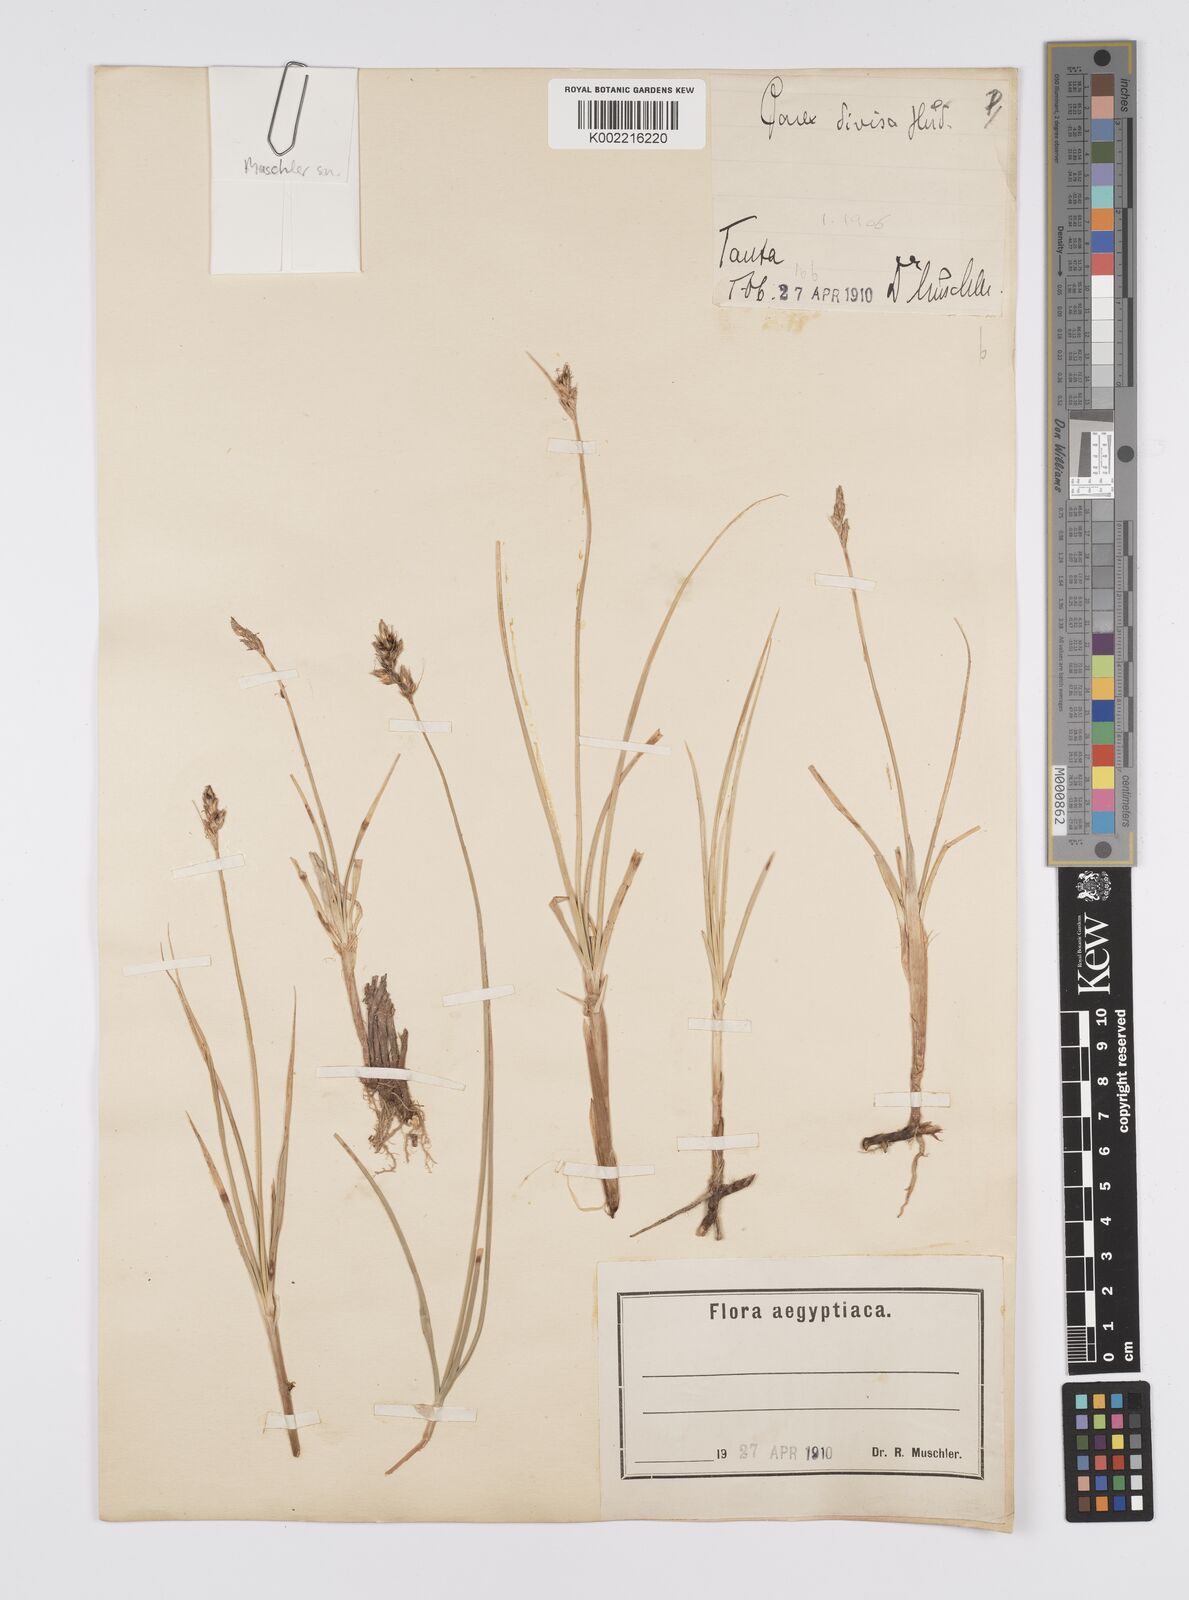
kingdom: Plantae
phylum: Tracheophyta
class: Liliopsida
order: Poales
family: Cyperaceae
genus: Carex
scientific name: Carex divisa
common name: Divided sedge
